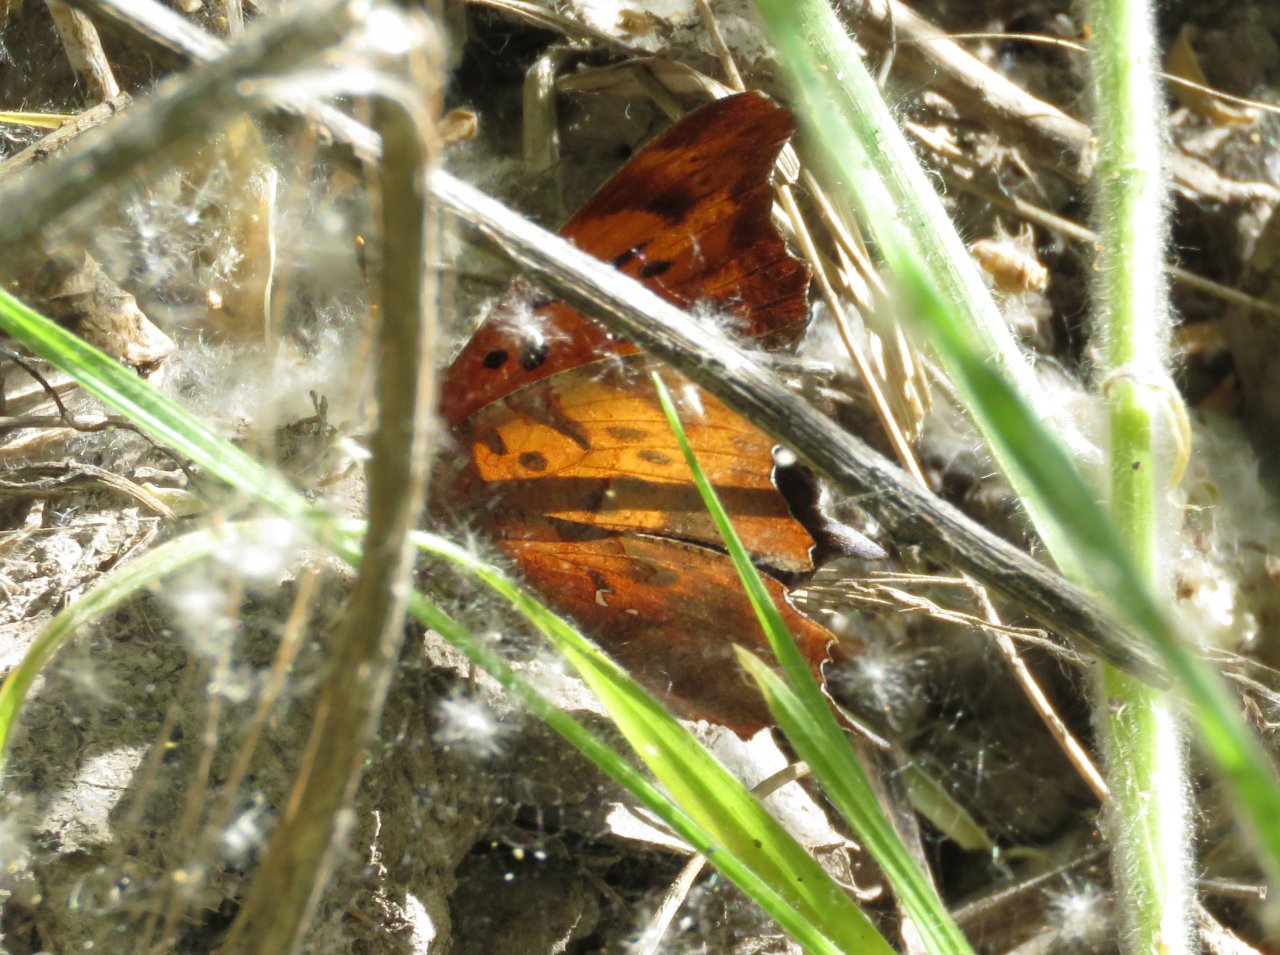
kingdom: Animalia
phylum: Arthropoda
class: Insecta
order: Lepidoptera
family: Nymphalidae
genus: Polygonia
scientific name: Polygonia interrogationis
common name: Question Mark
